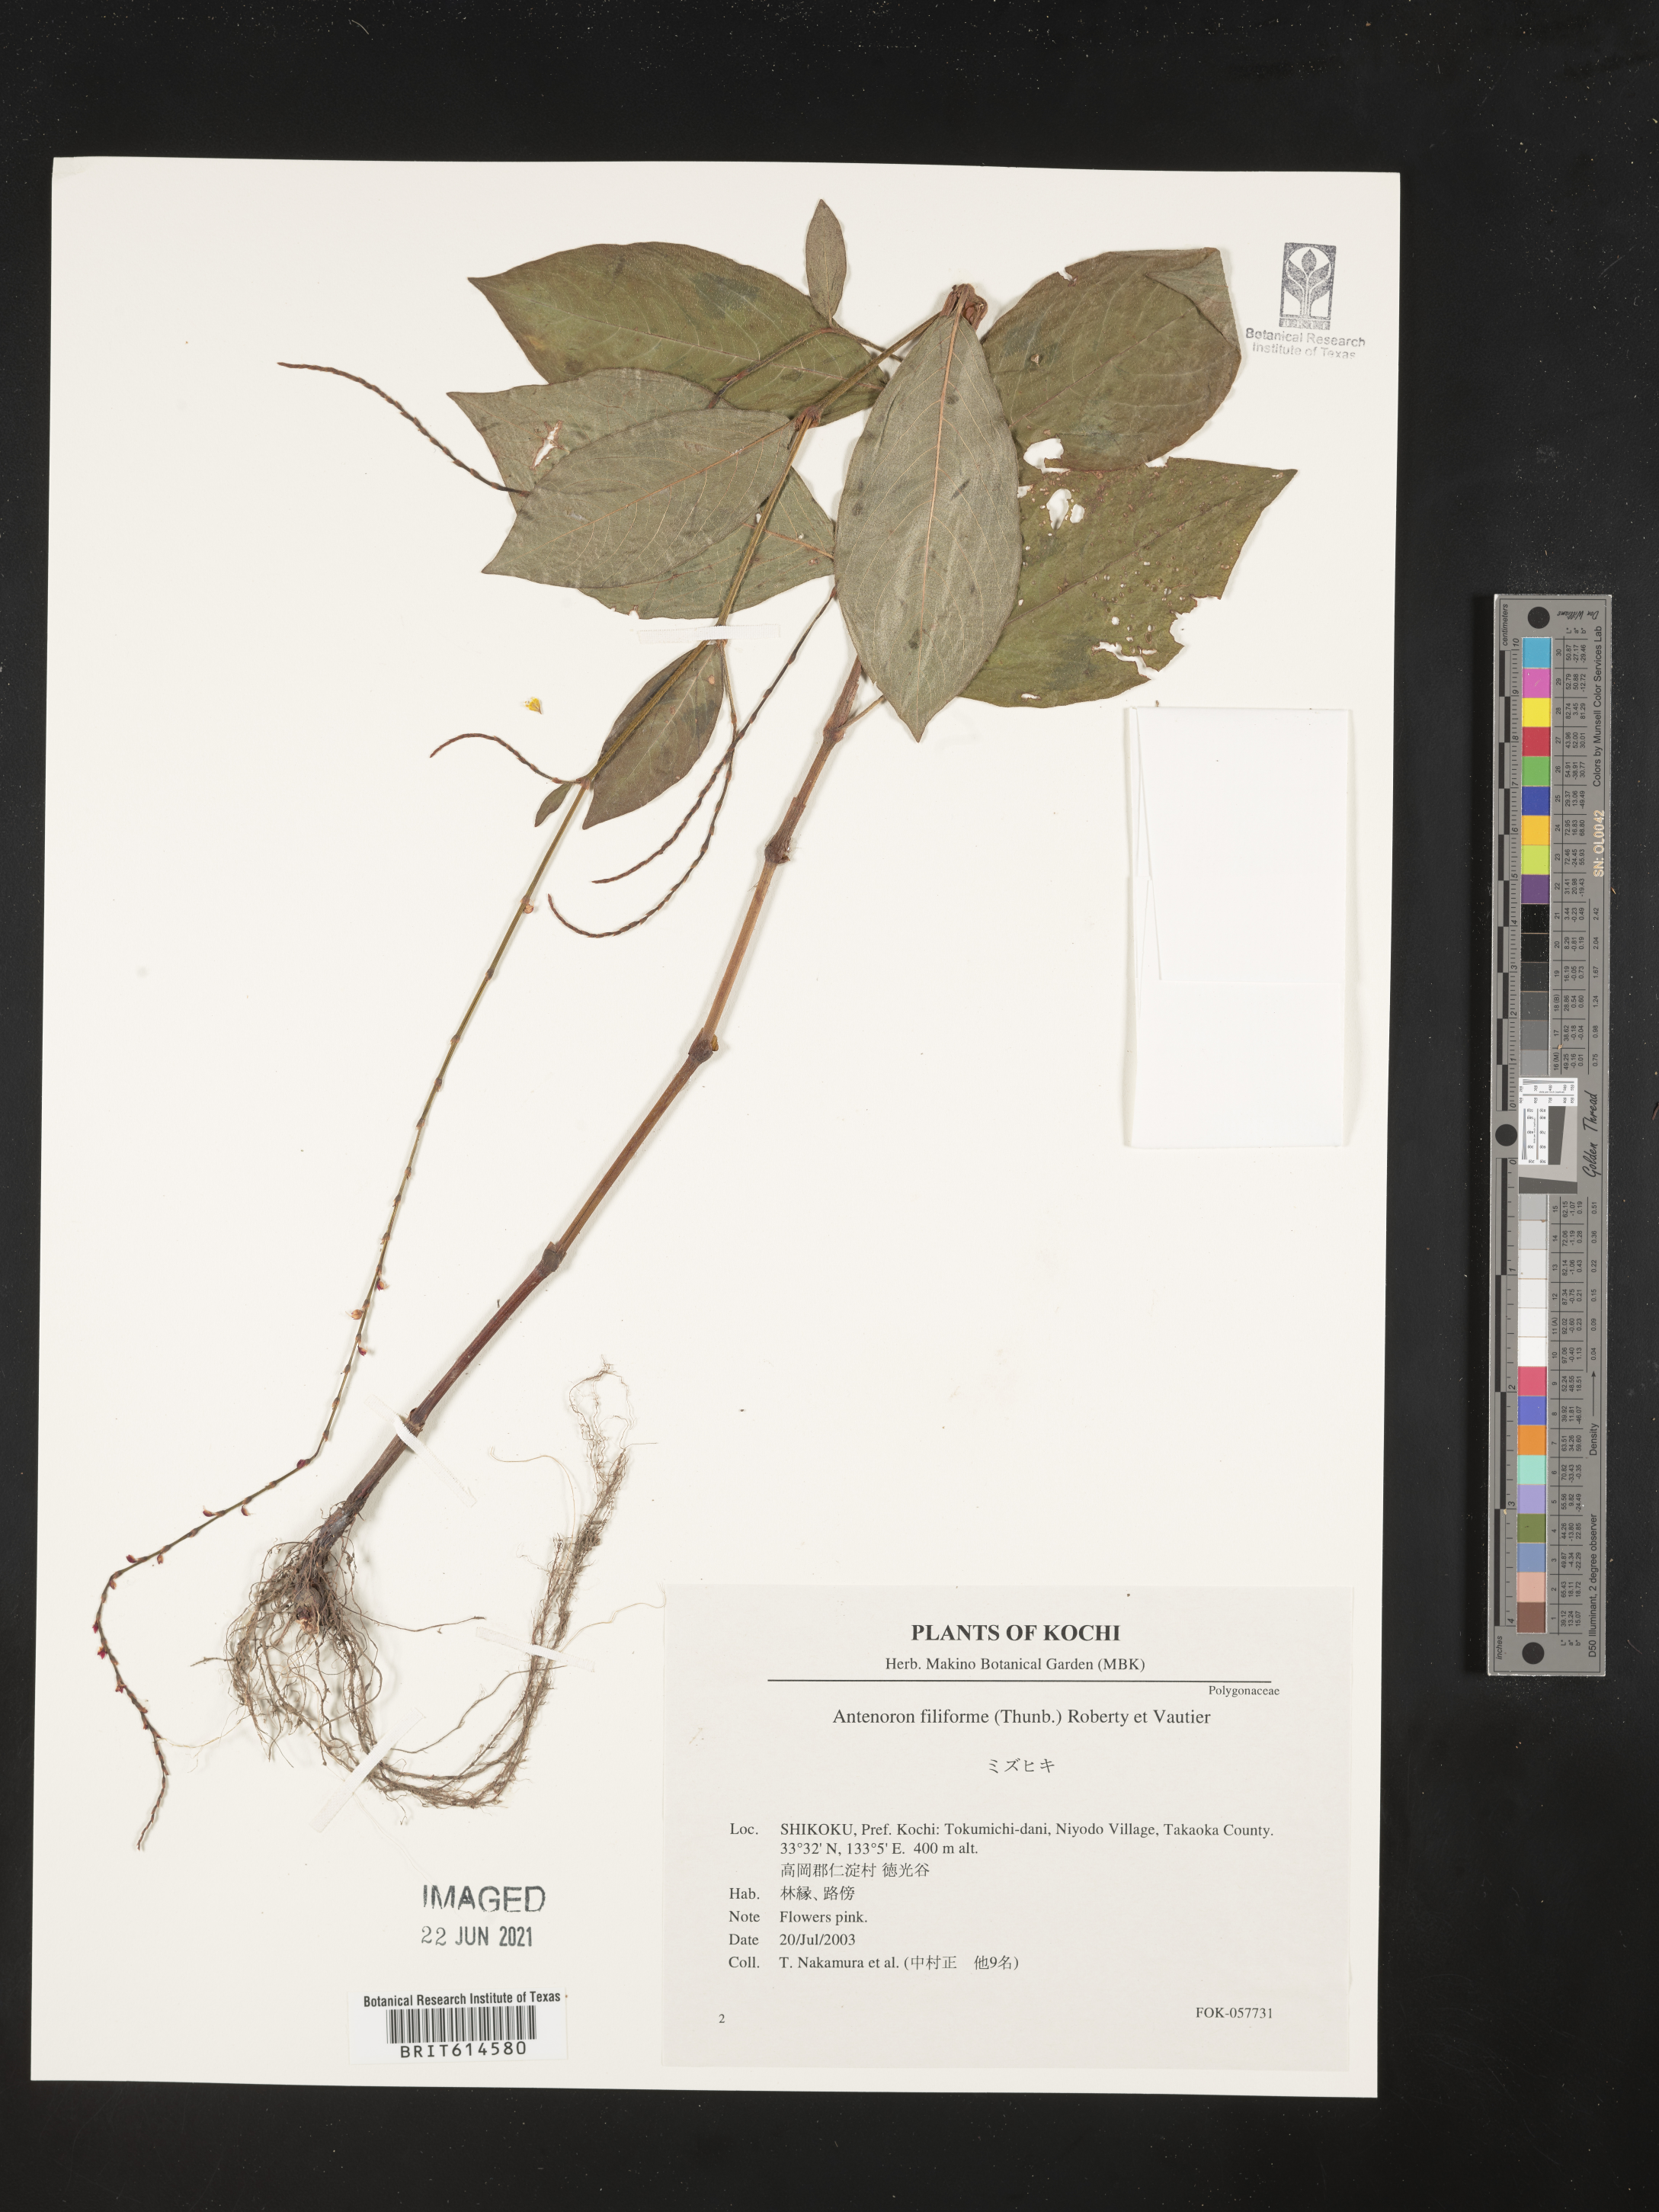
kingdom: Plantae
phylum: Tracheophyta
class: Magnoliopsida
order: Caryophyllales
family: Polygonaceae
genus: Persicaria
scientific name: Persicaria filiformis
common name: Asian jumpseed
